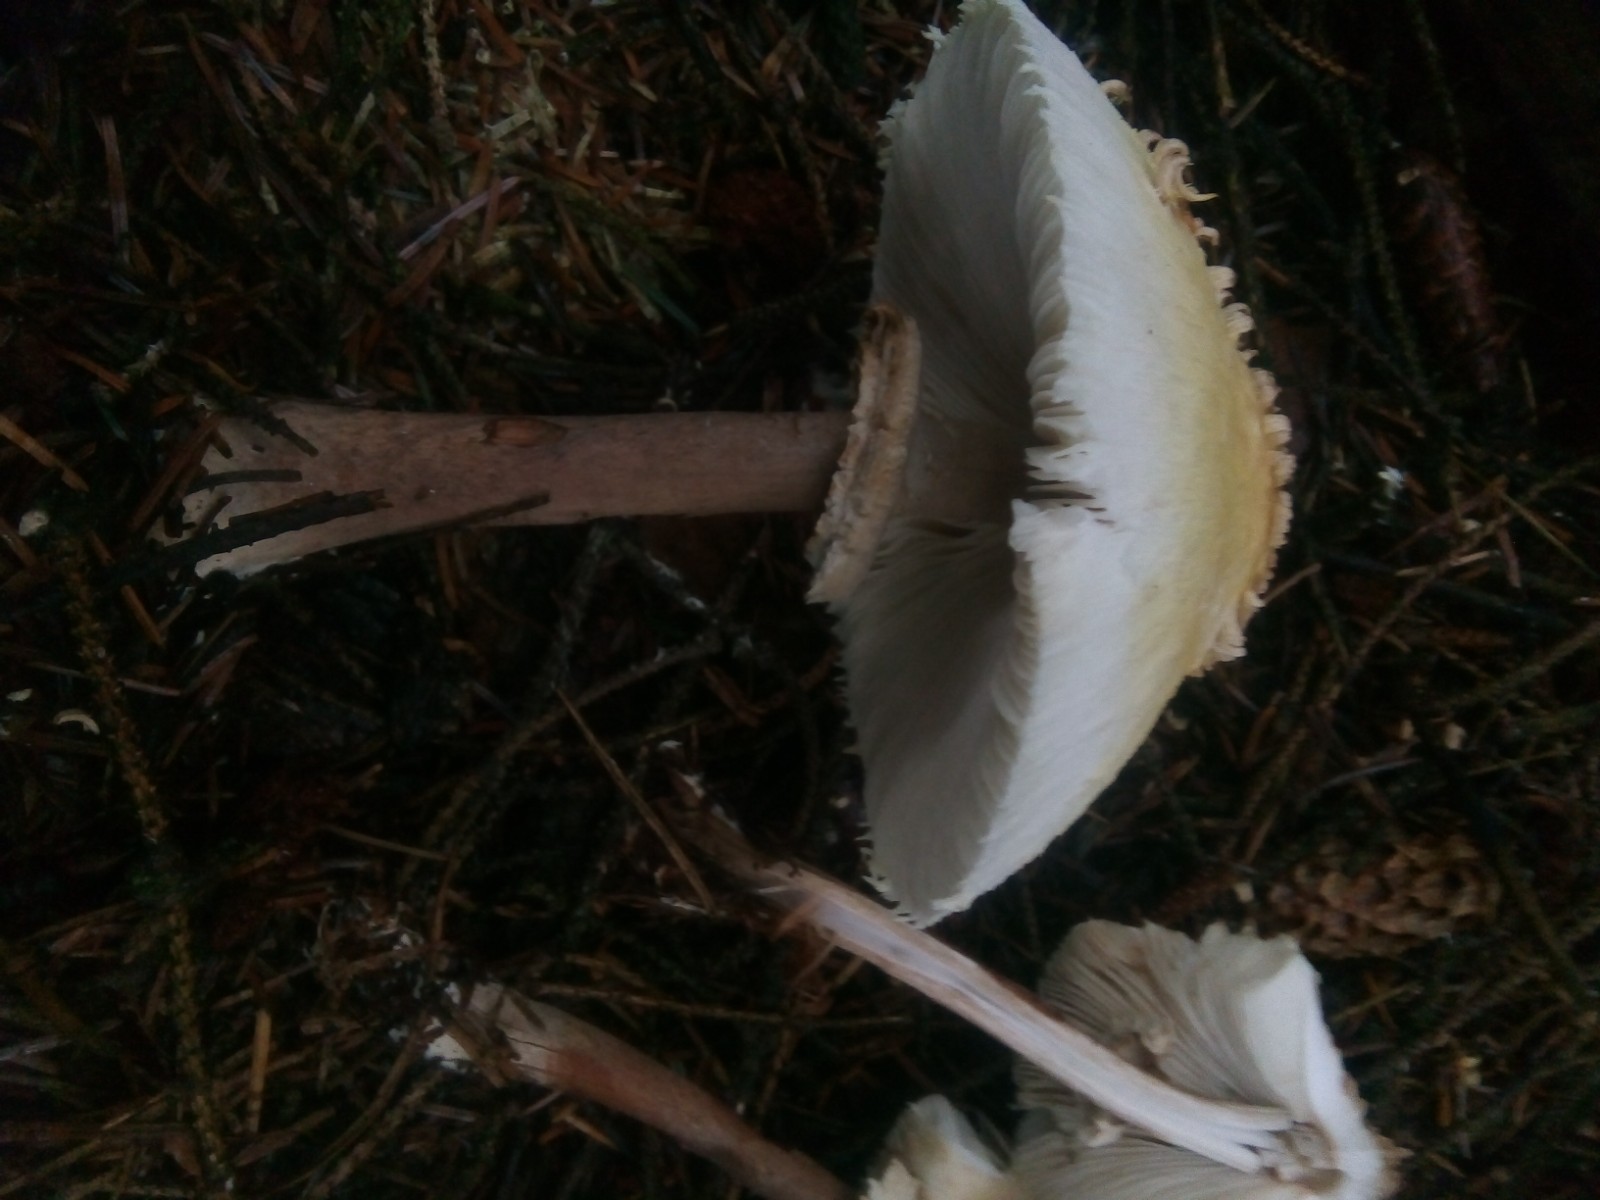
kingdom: Fungi
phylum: Basidiomycota
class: Agaricomycetes
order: Agaricales
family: Agaricaceae
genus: Leucoagaricus
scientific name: Leucoagaricus nympharum
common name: gran-silkehat
